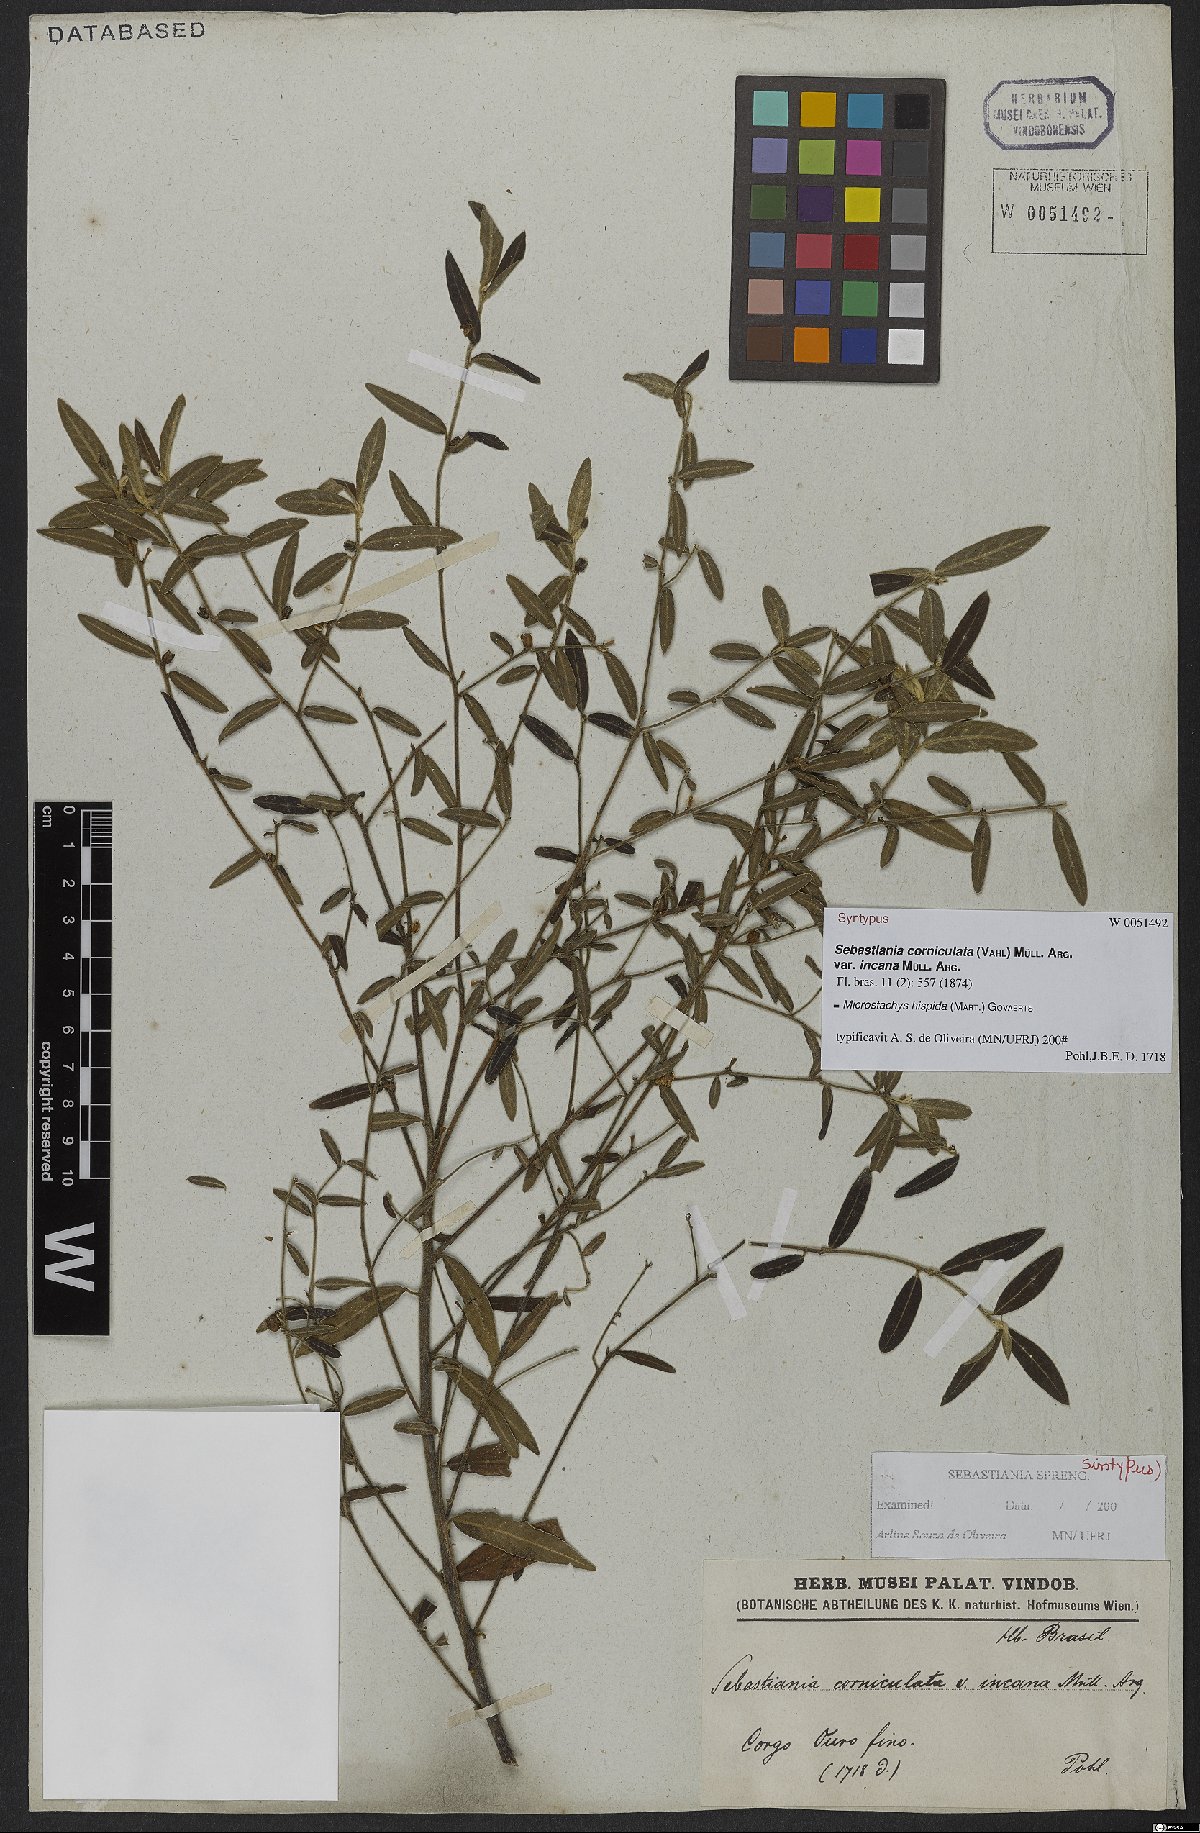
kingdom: Plantae
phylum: Tracheophyta
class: Magnoliopsida
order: Malpighiales
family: Euphorbiaceae
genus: Microstachys
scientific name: Microstachys hispida
